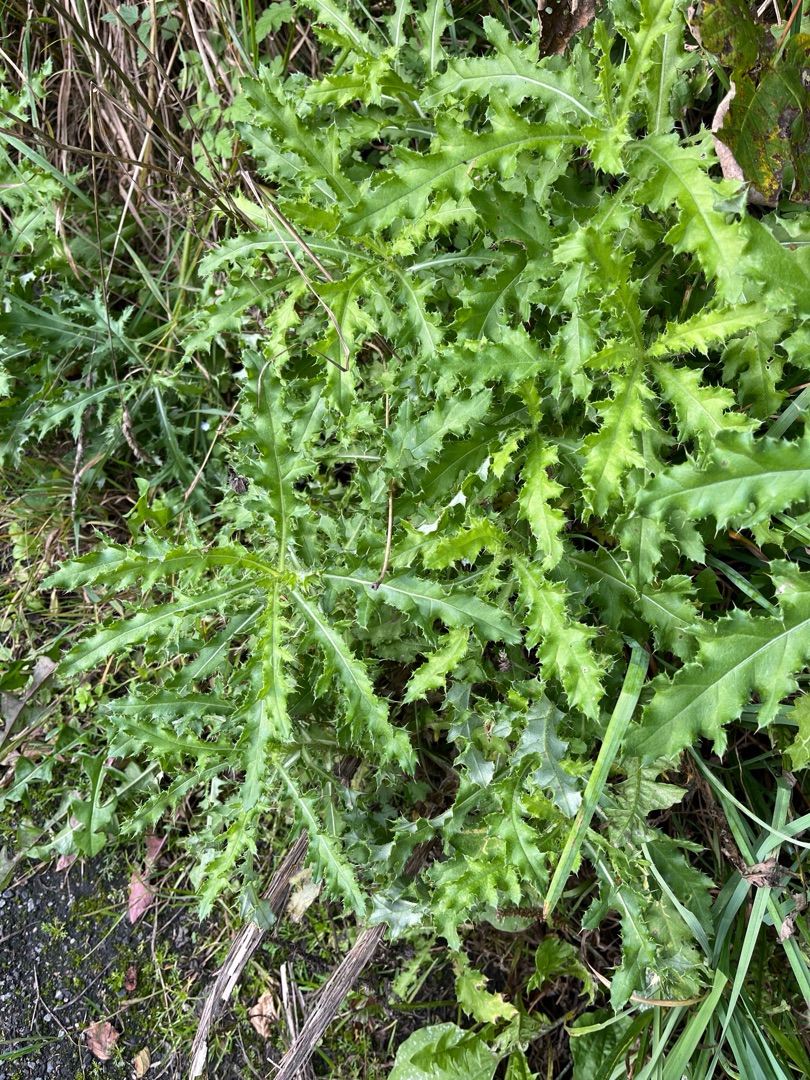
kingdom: Plantae
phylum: Tracheophyta
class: Magnoliopsida
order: Asterales
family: Asteraceae
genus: Cirsium
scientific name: Cirsium arvense
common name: Ager-tidsel
